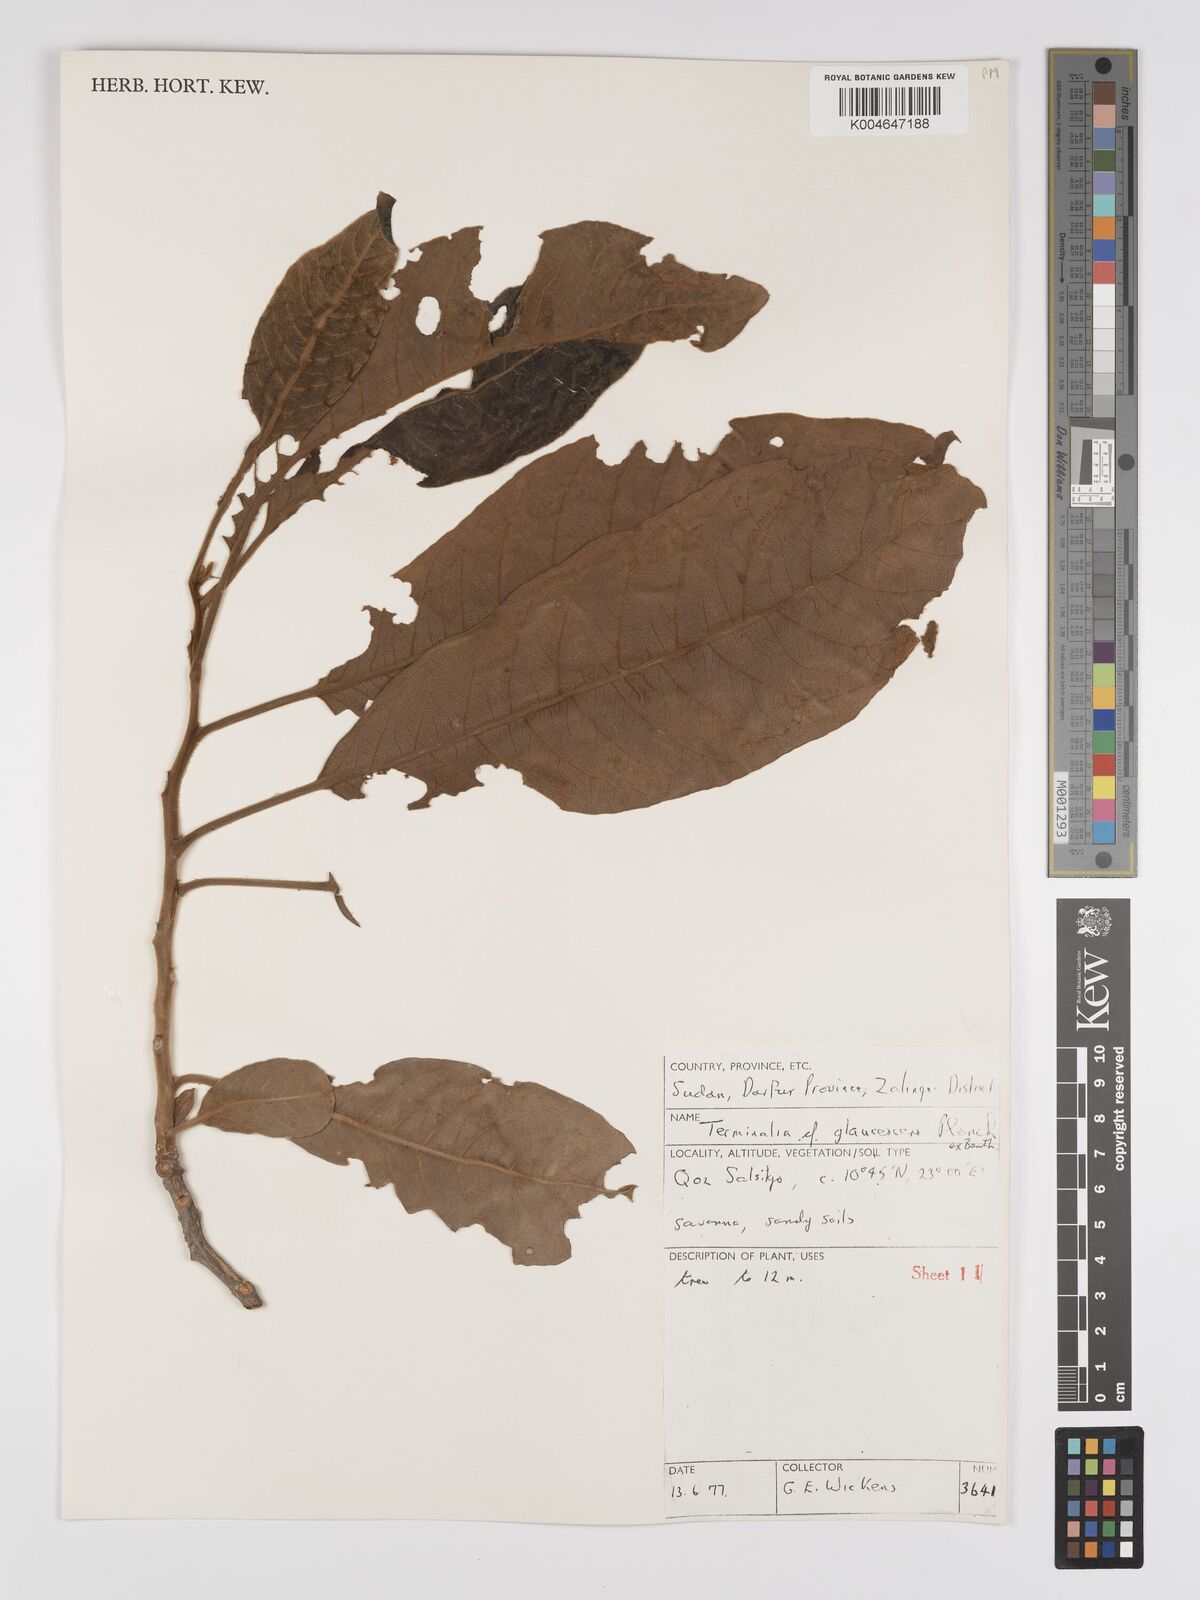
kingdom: Plantae
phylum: Tracheophyta
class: Magnoliopsida
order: Myrtales
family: Combretaceae
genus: Terminalia
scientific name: Terminalia schimperiana
